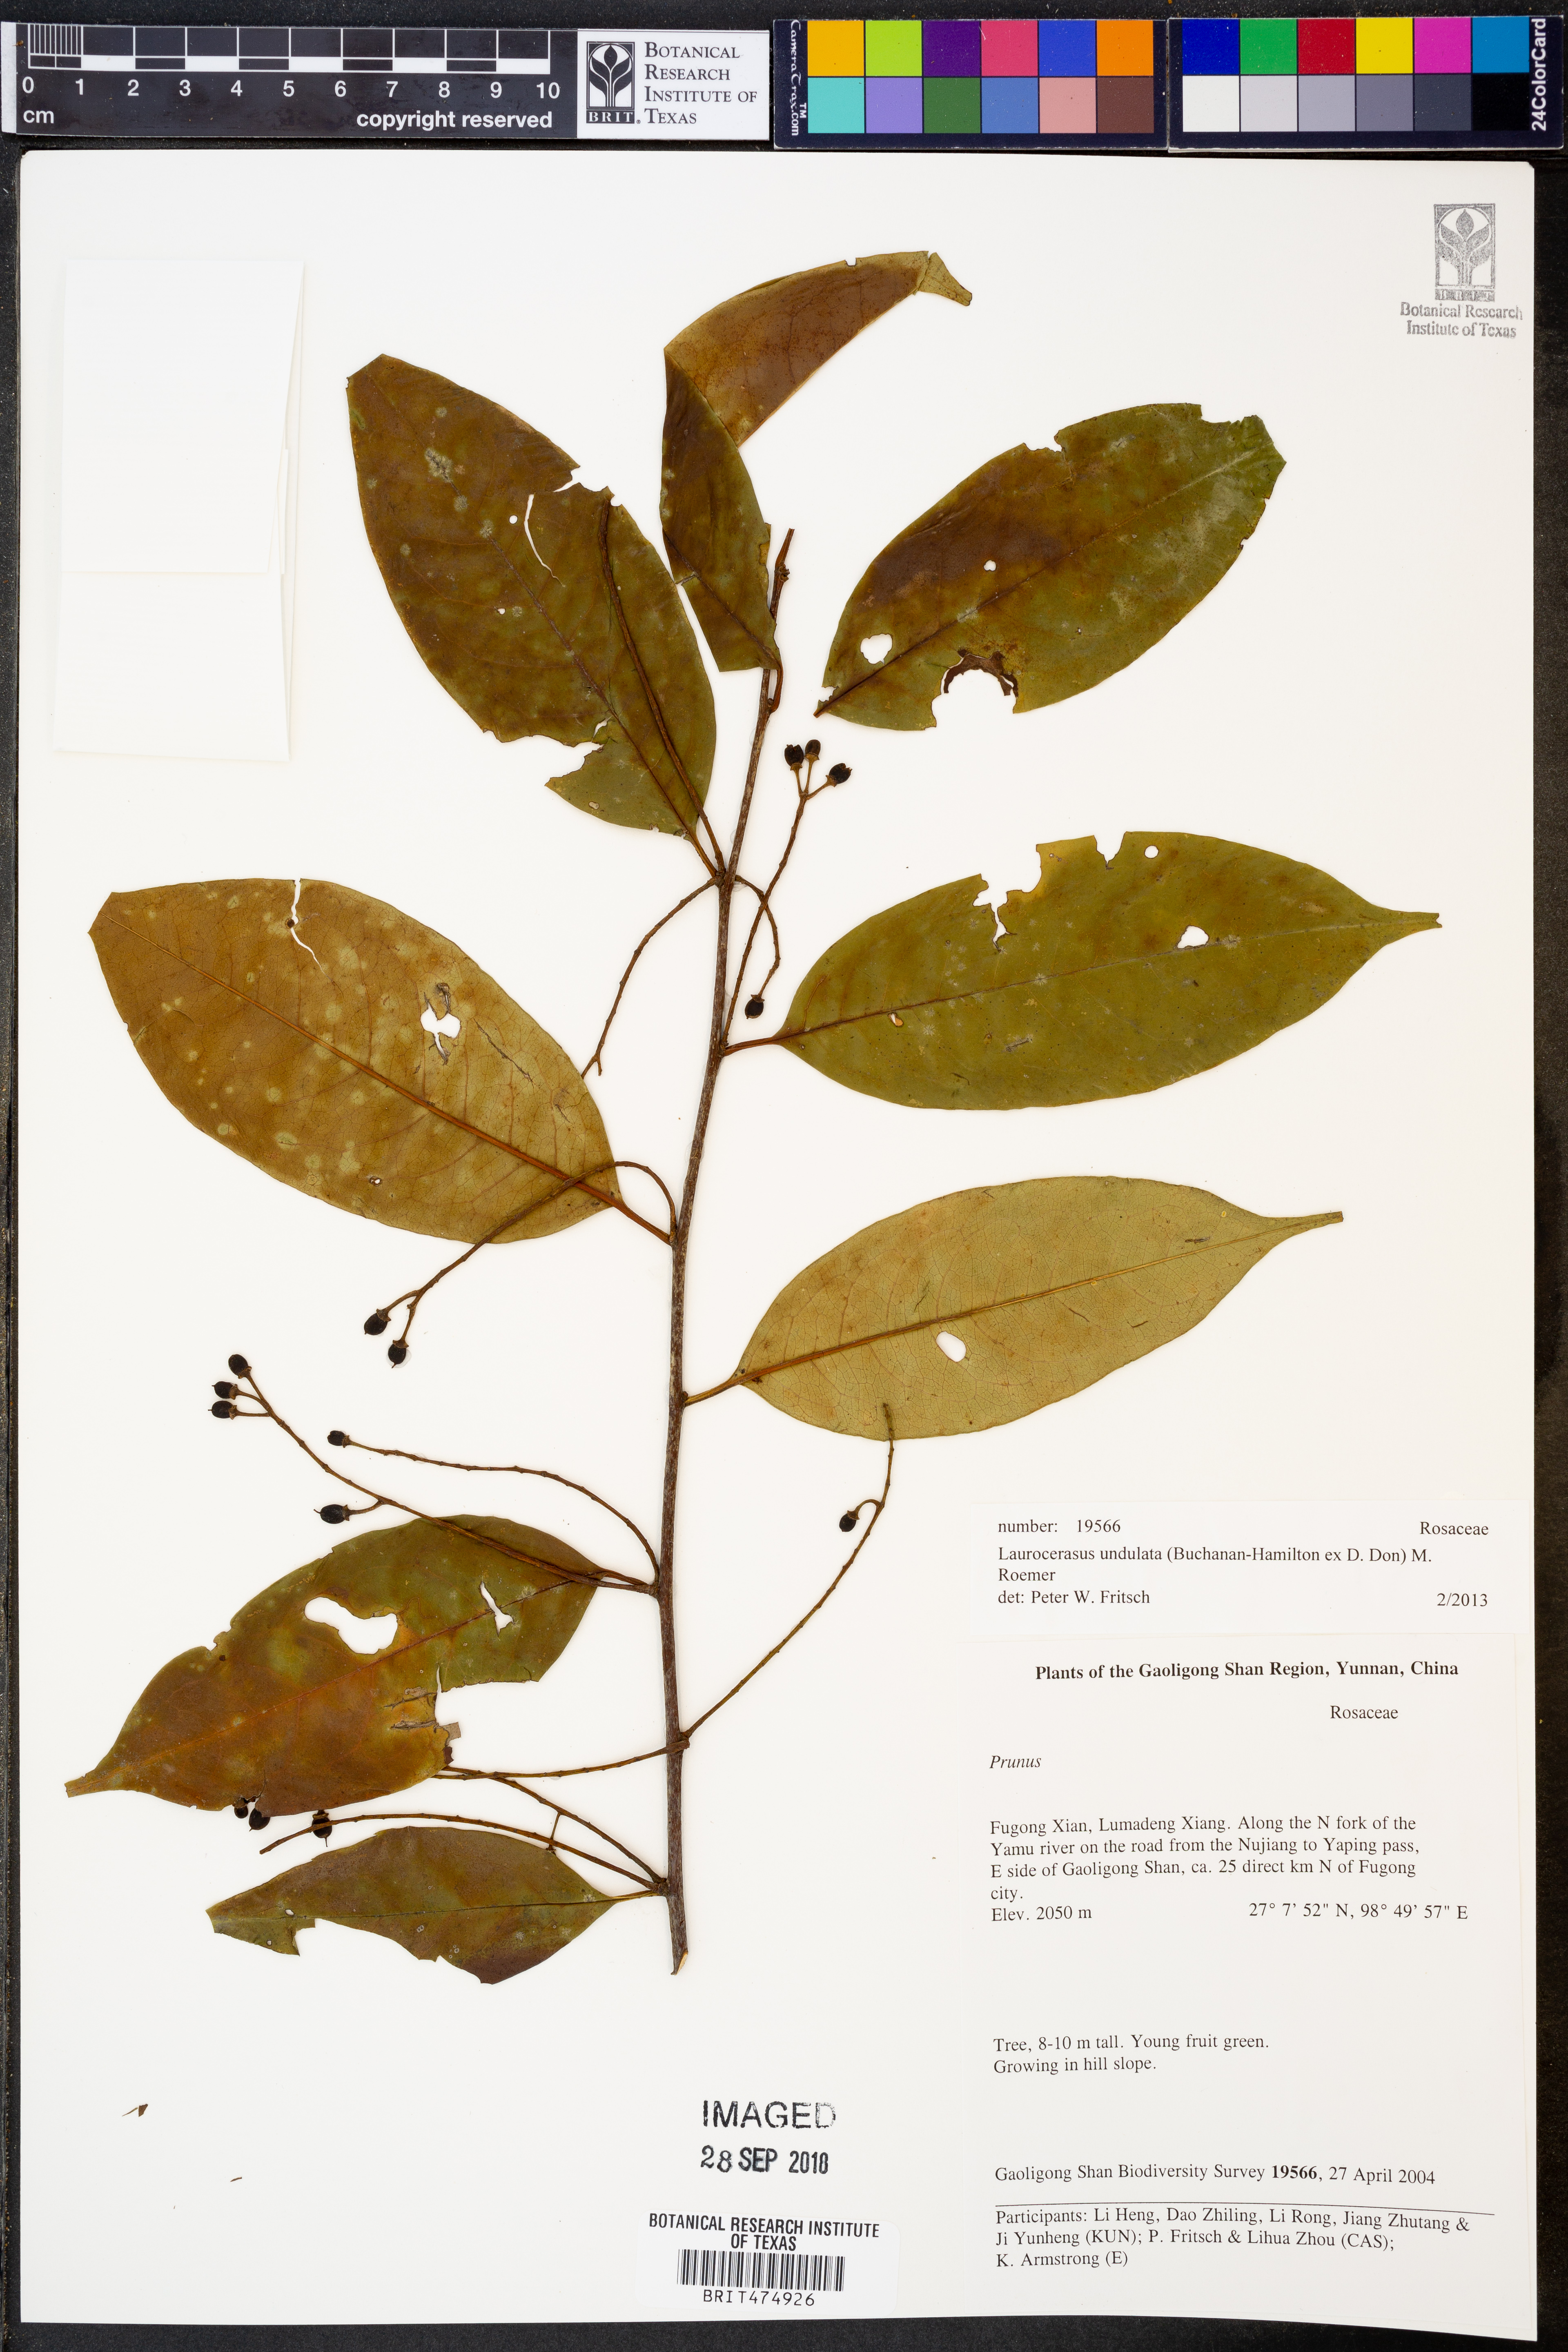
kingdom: Plantae
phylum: Tracheophyta
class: Magnoliopsida
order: Rosales
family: Rosaceae
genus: Prunus
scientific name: Prunus undulata
